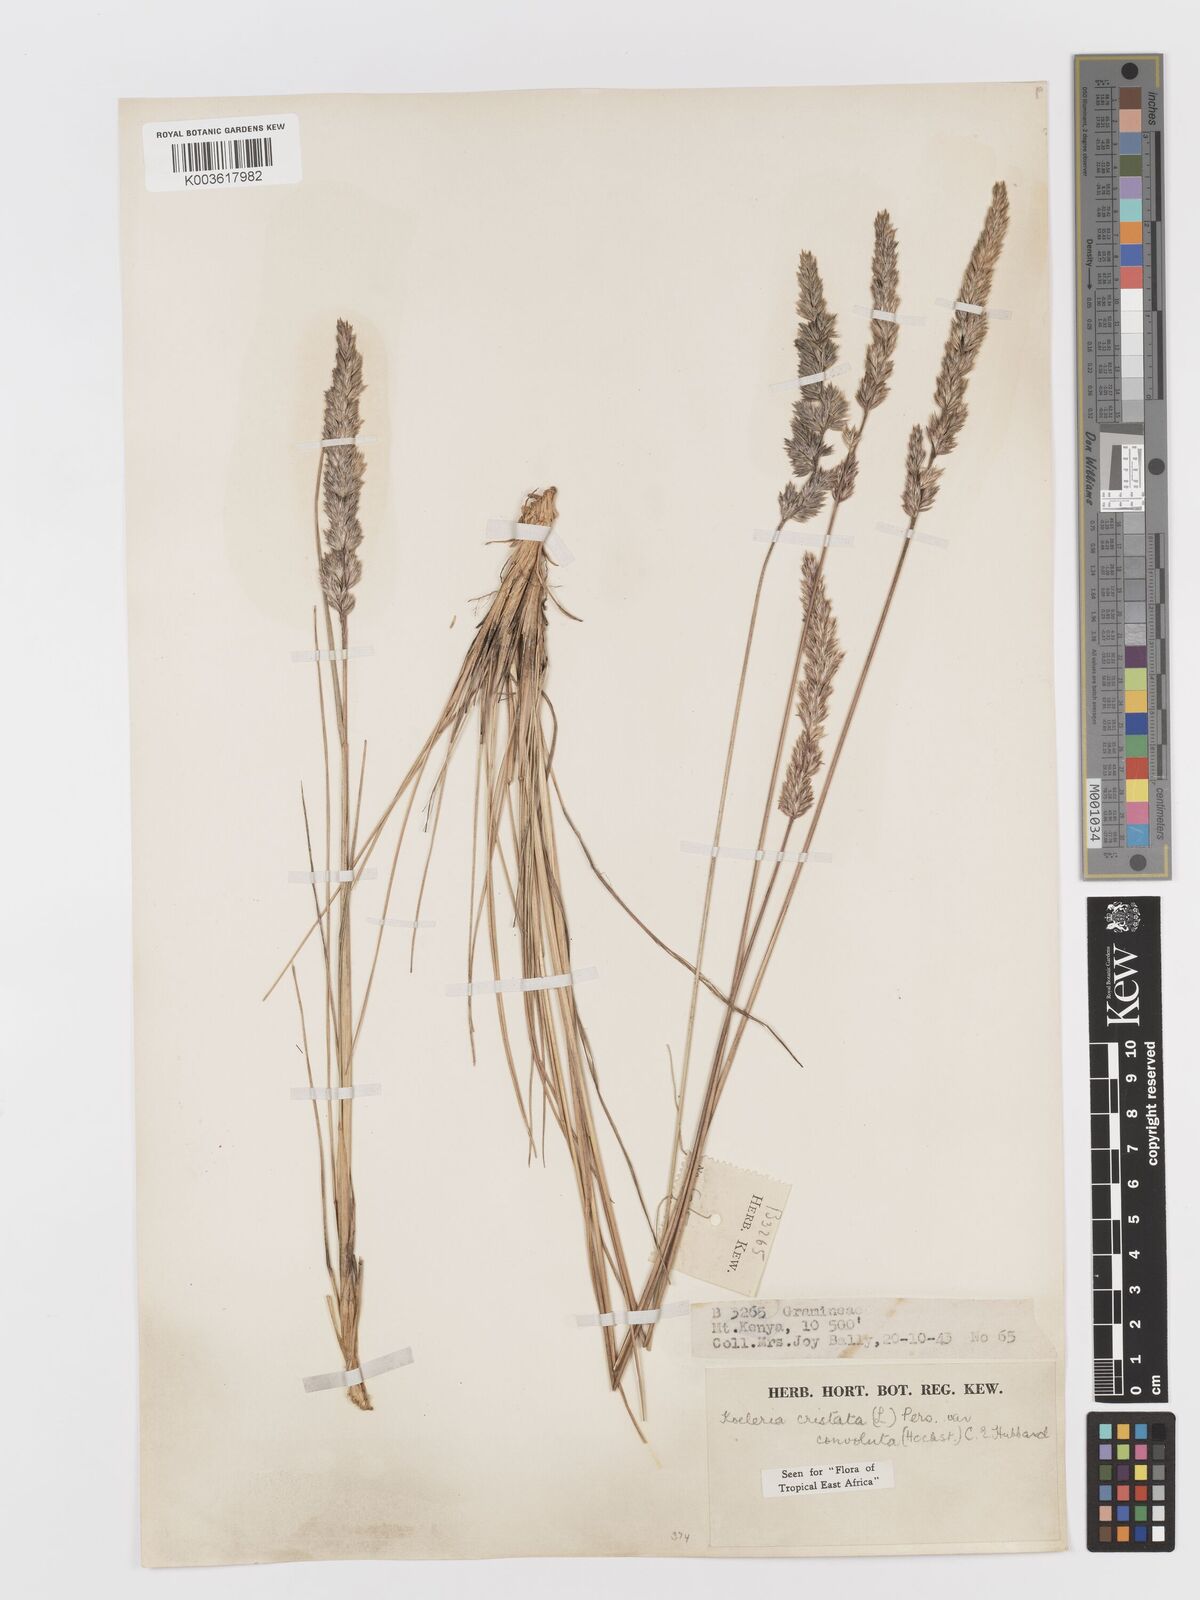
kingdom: Plantae
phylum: Tracheophyta
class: Liliopsida
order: Poales
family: Poaceae
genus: Koeleria
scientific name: Koeleria capensis
